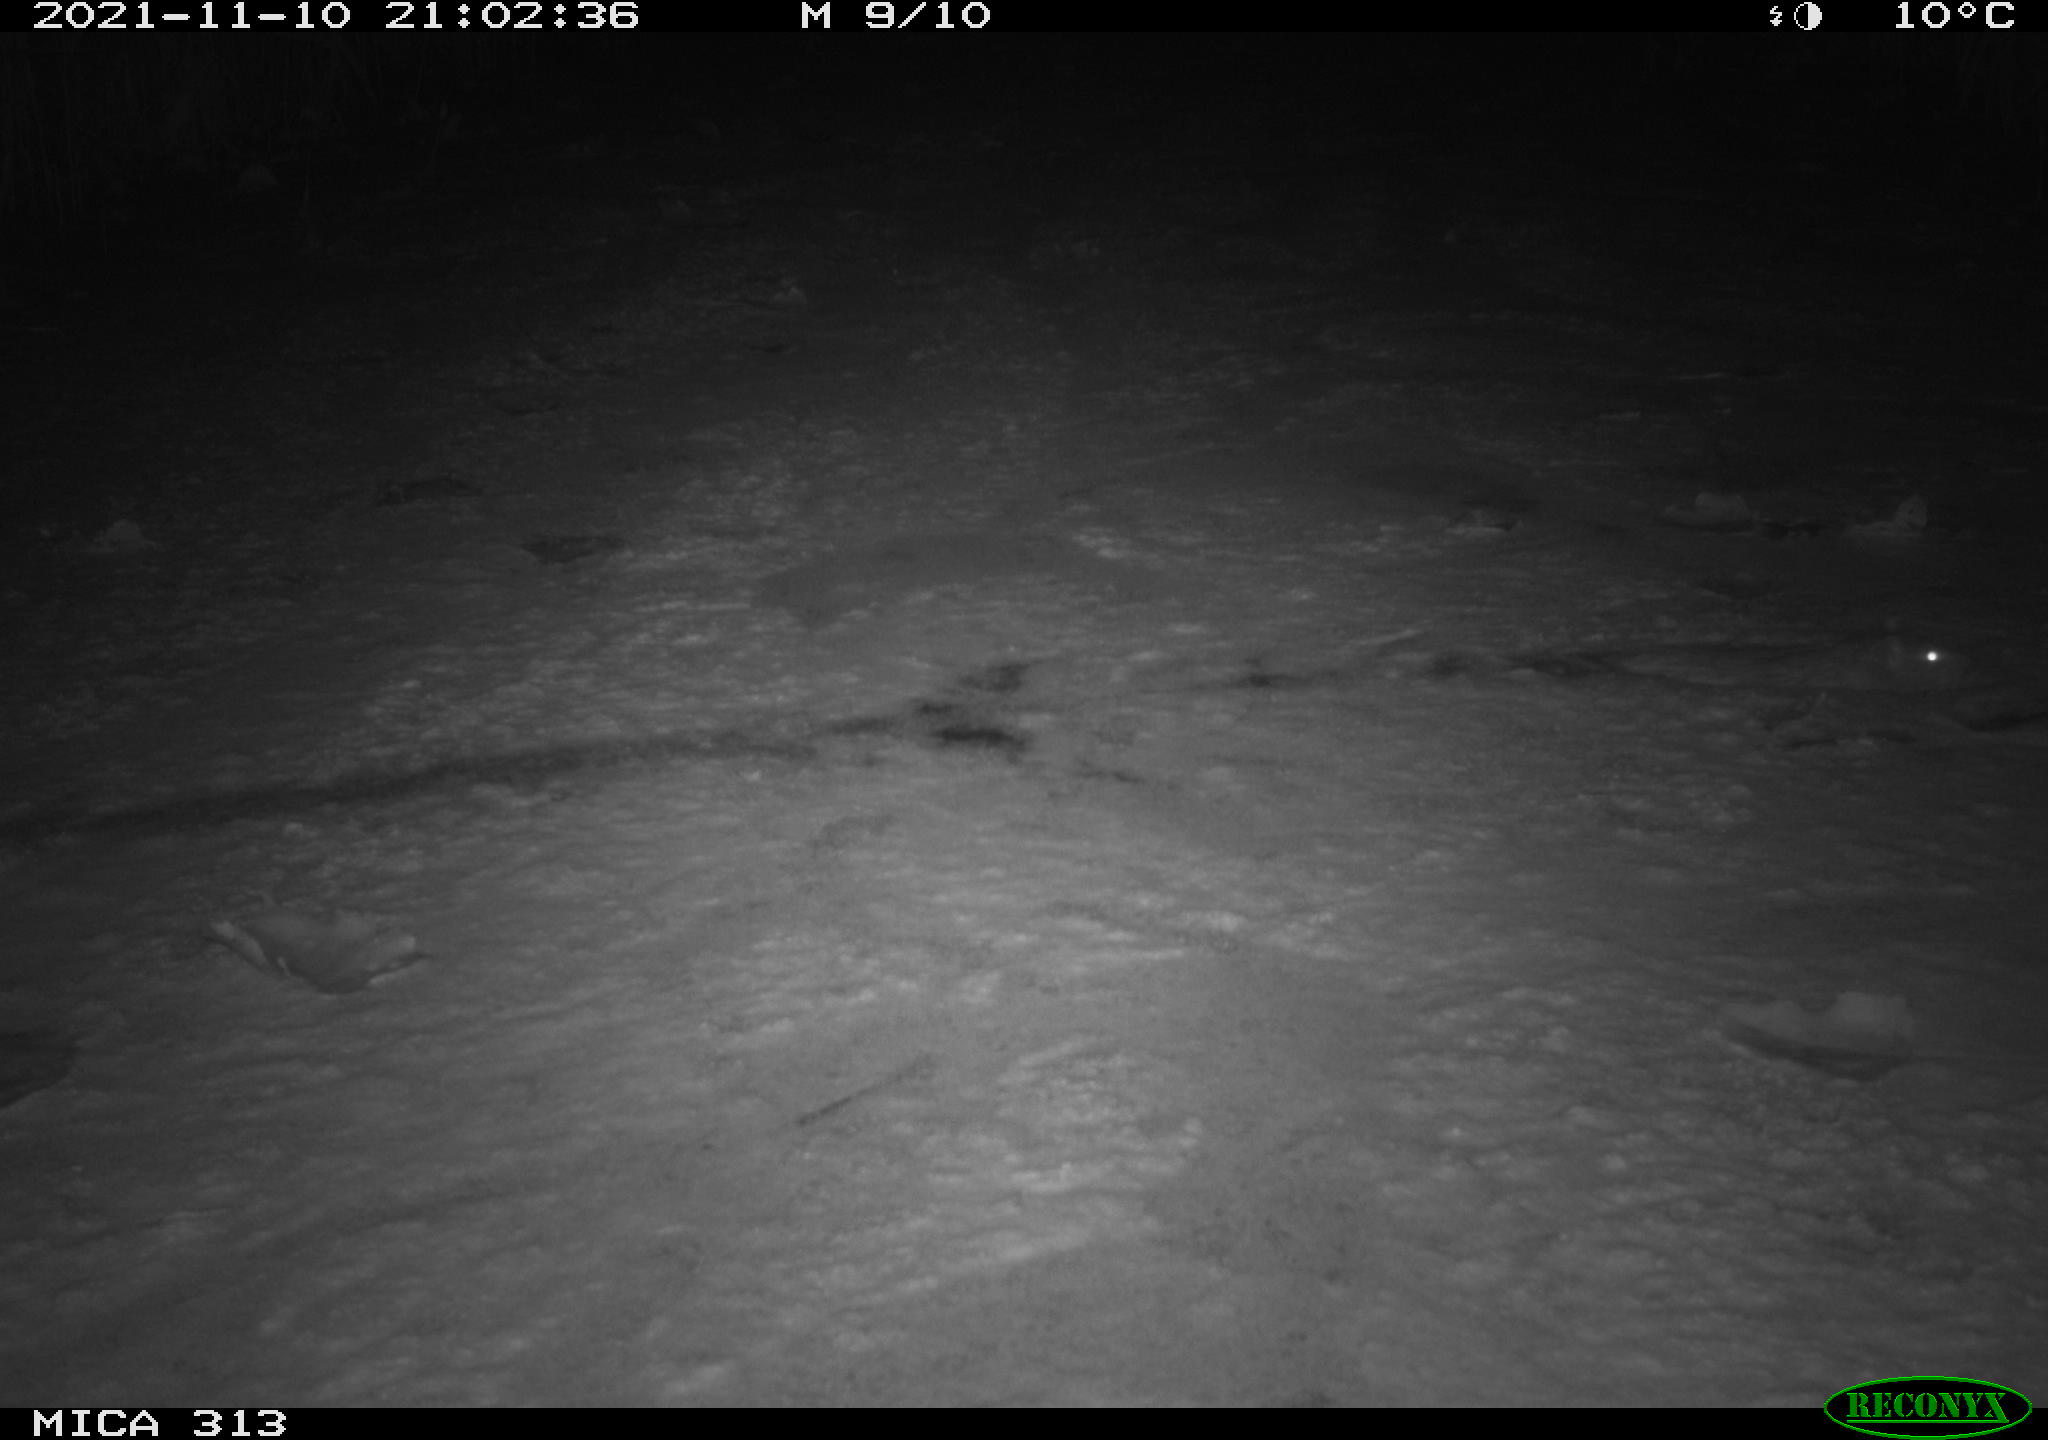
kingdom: Animalia
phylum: Chordata
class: Mammalia
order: Rodentia
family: Muridae
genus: Rattus
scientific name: Rattus norvegicus
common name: Brown rat
